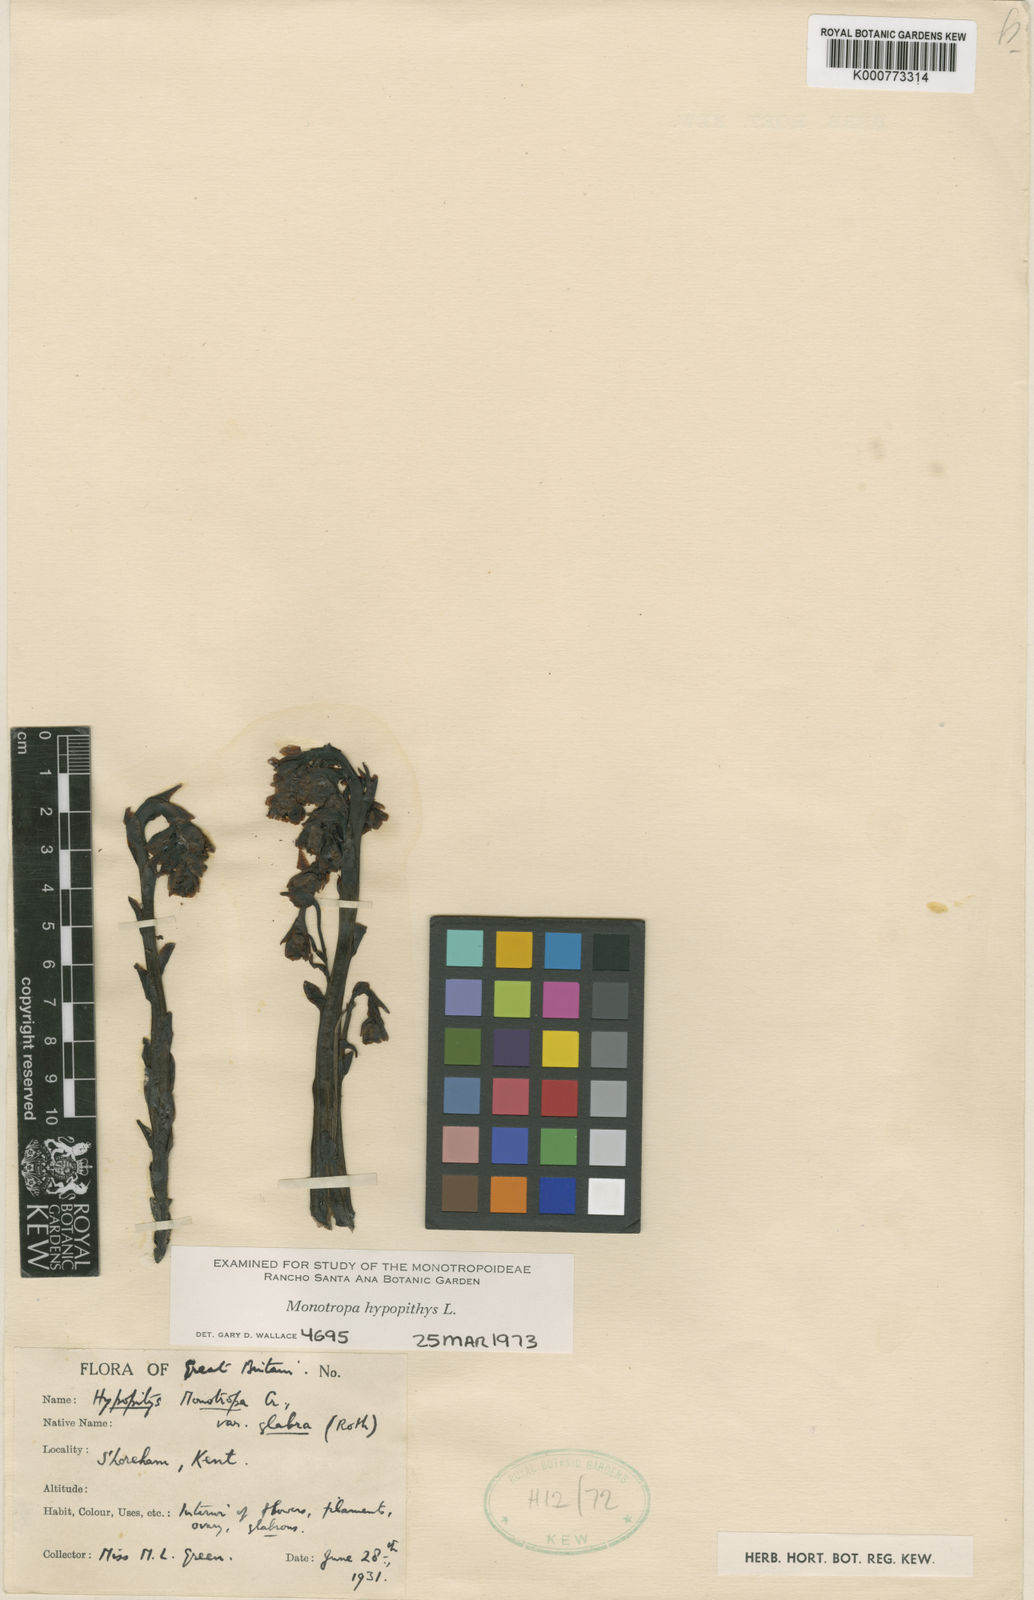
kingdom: Plantae
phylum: Tracheophyta
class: Magnoliopsida
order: Ericales
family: Ericaceae
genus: Monotropa
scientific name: Monotropa
